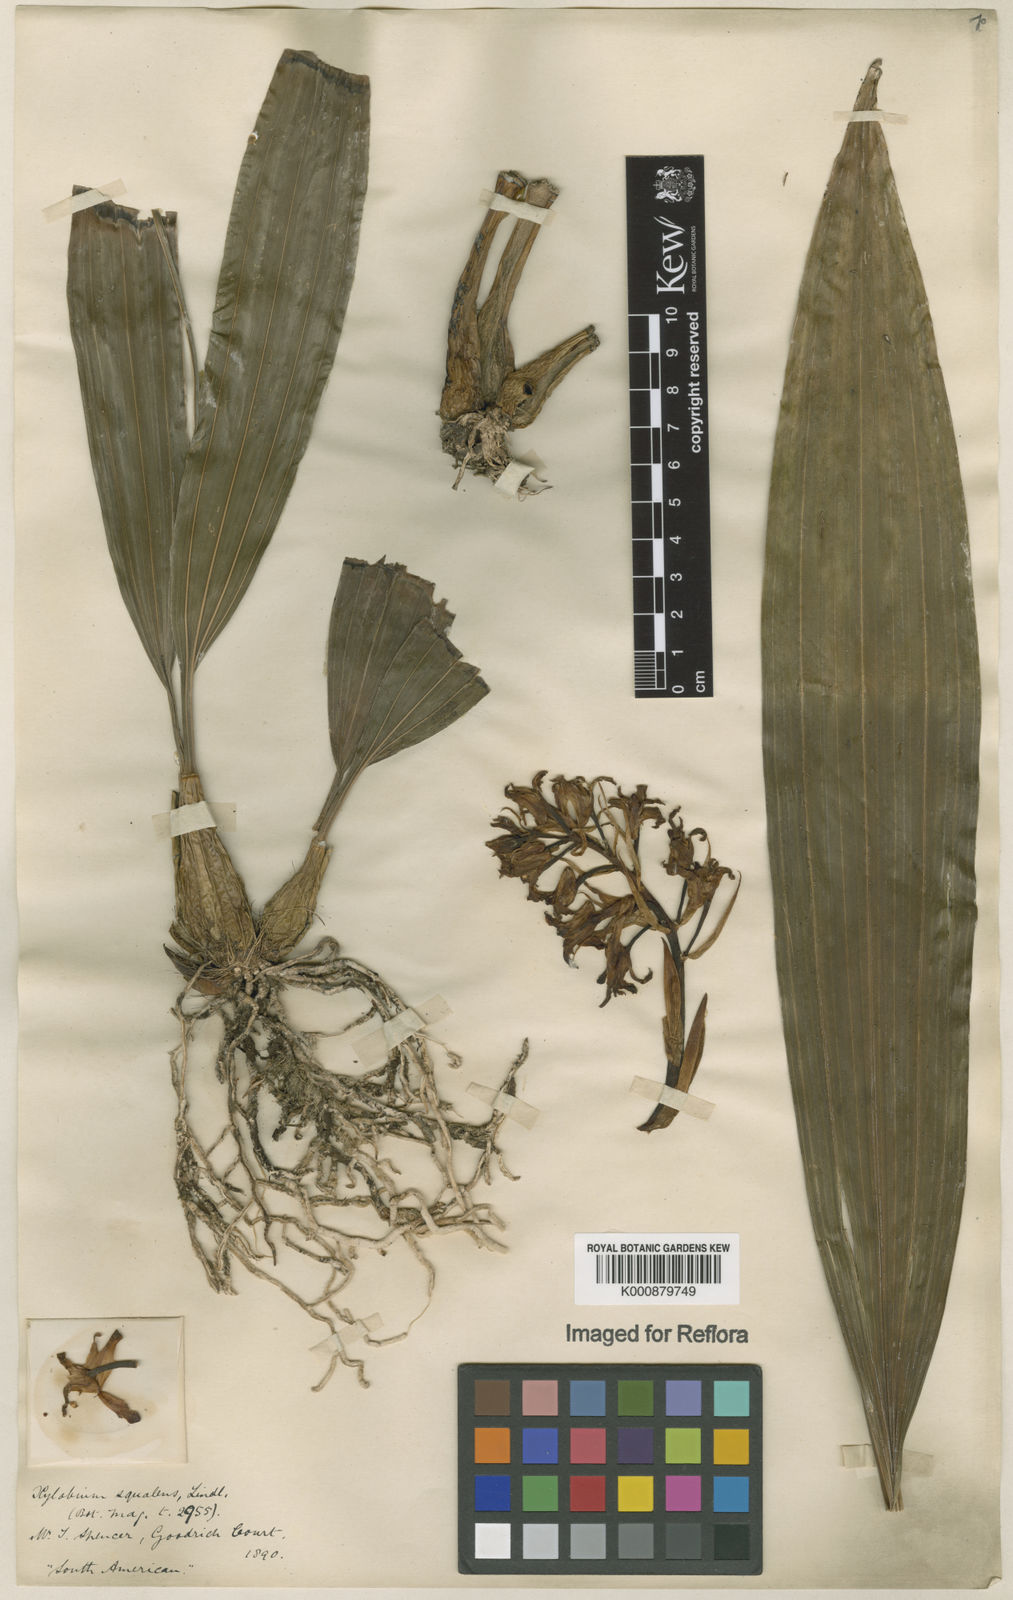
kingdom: Plantae
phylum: Tracheophyta
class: Liliopsida
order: Asparagales
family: Orchidaceae
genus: Xylobium
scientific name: Xylobium
